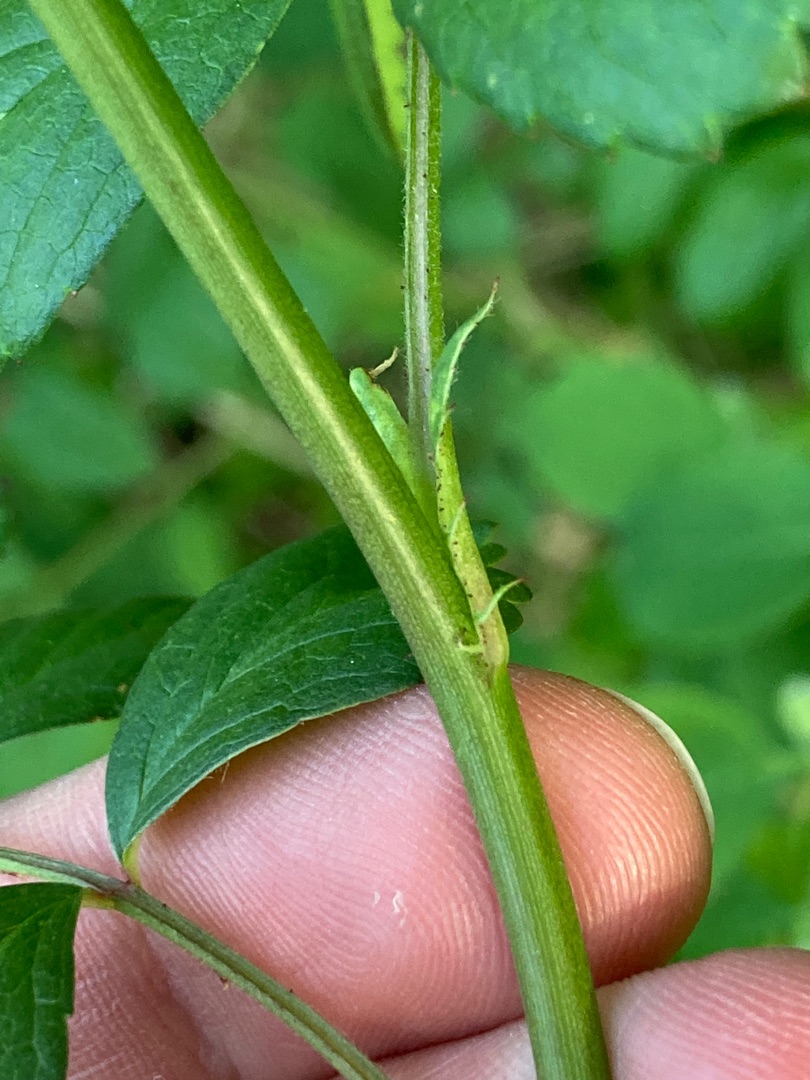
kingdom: Plantae
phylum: Tracheophyta
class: Magnoliopsida
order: Rosales
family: Rosaceae
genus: Rosa
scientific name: Rosa multiflora
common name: Mangeblomstret rose
